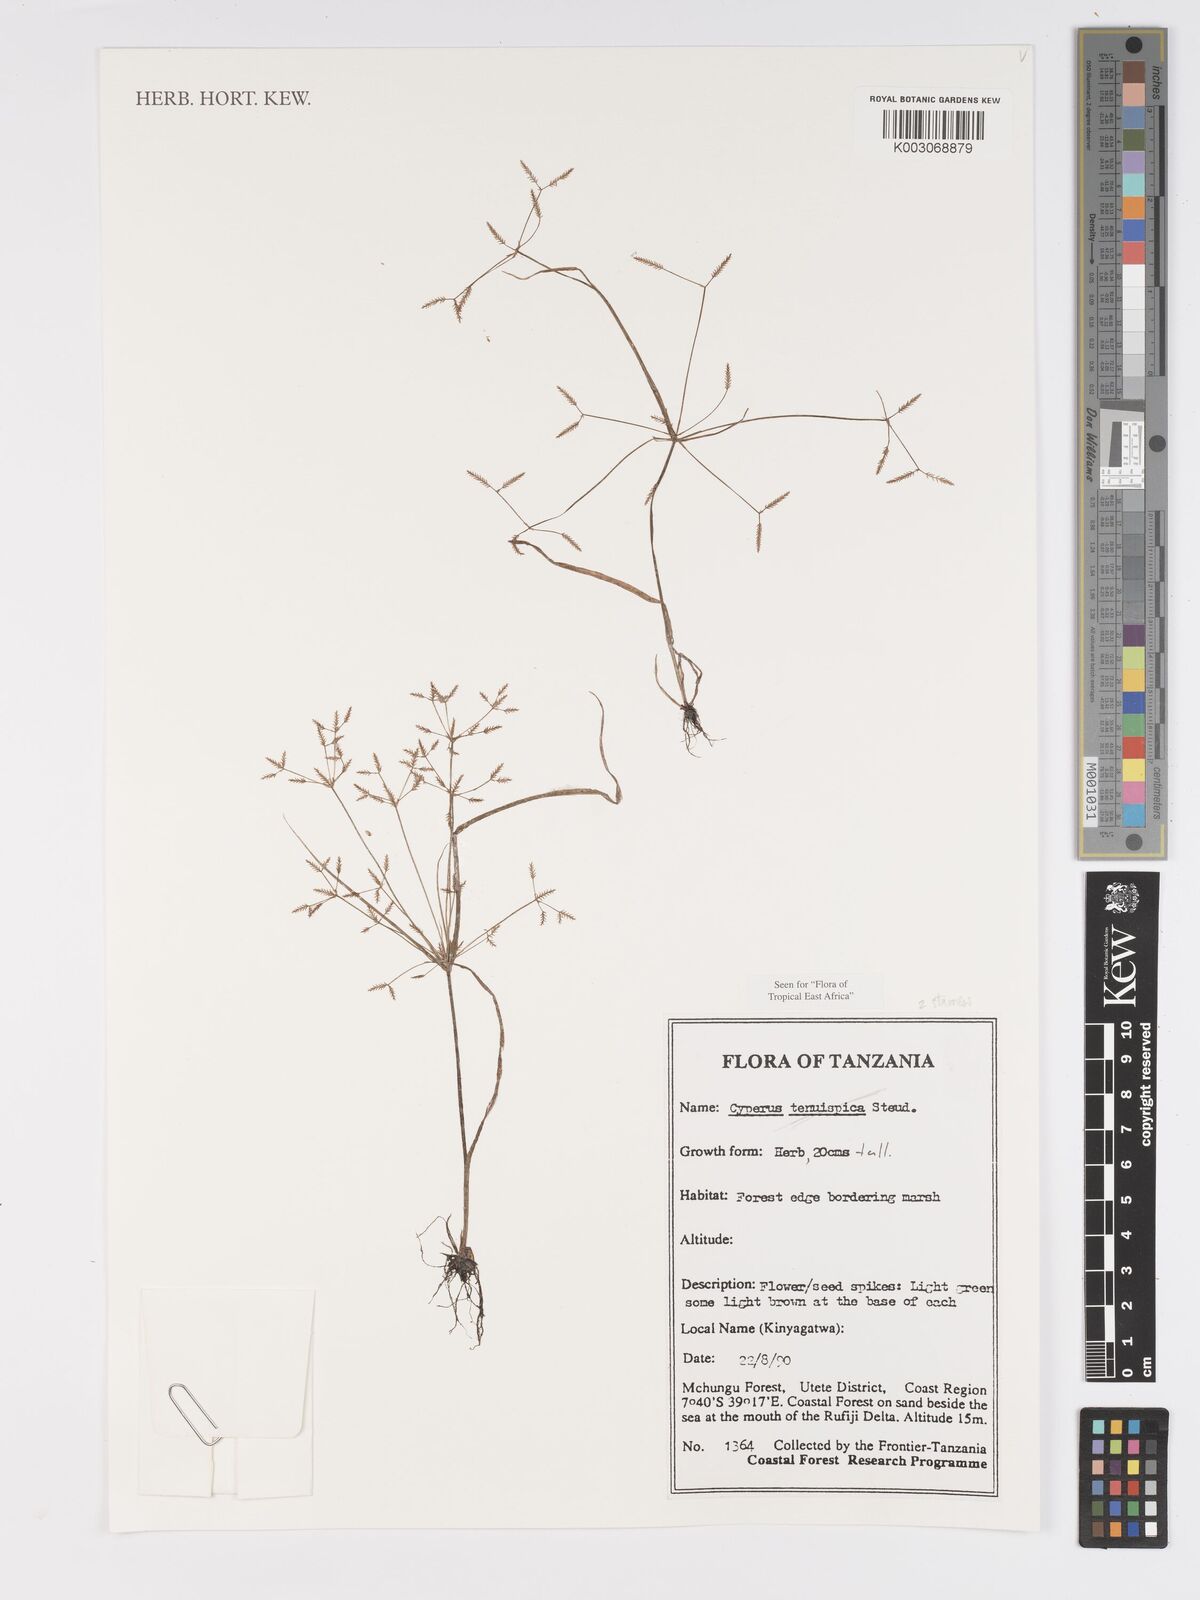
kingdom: Plantae
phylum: Tracheophyta
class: Liliopsida
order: Poales
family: Cyperaceae
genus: Cyperus
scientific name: Cyperus tenuispica
